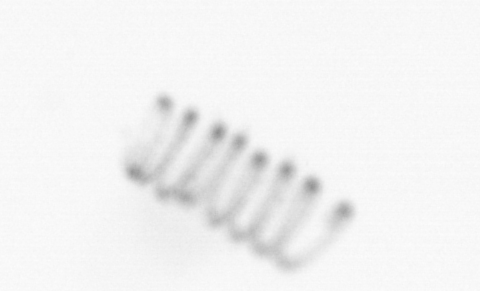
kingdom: Chromista
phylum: Ochrophyta
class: Bacillariophyceae
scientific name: Bacillariophyceae
